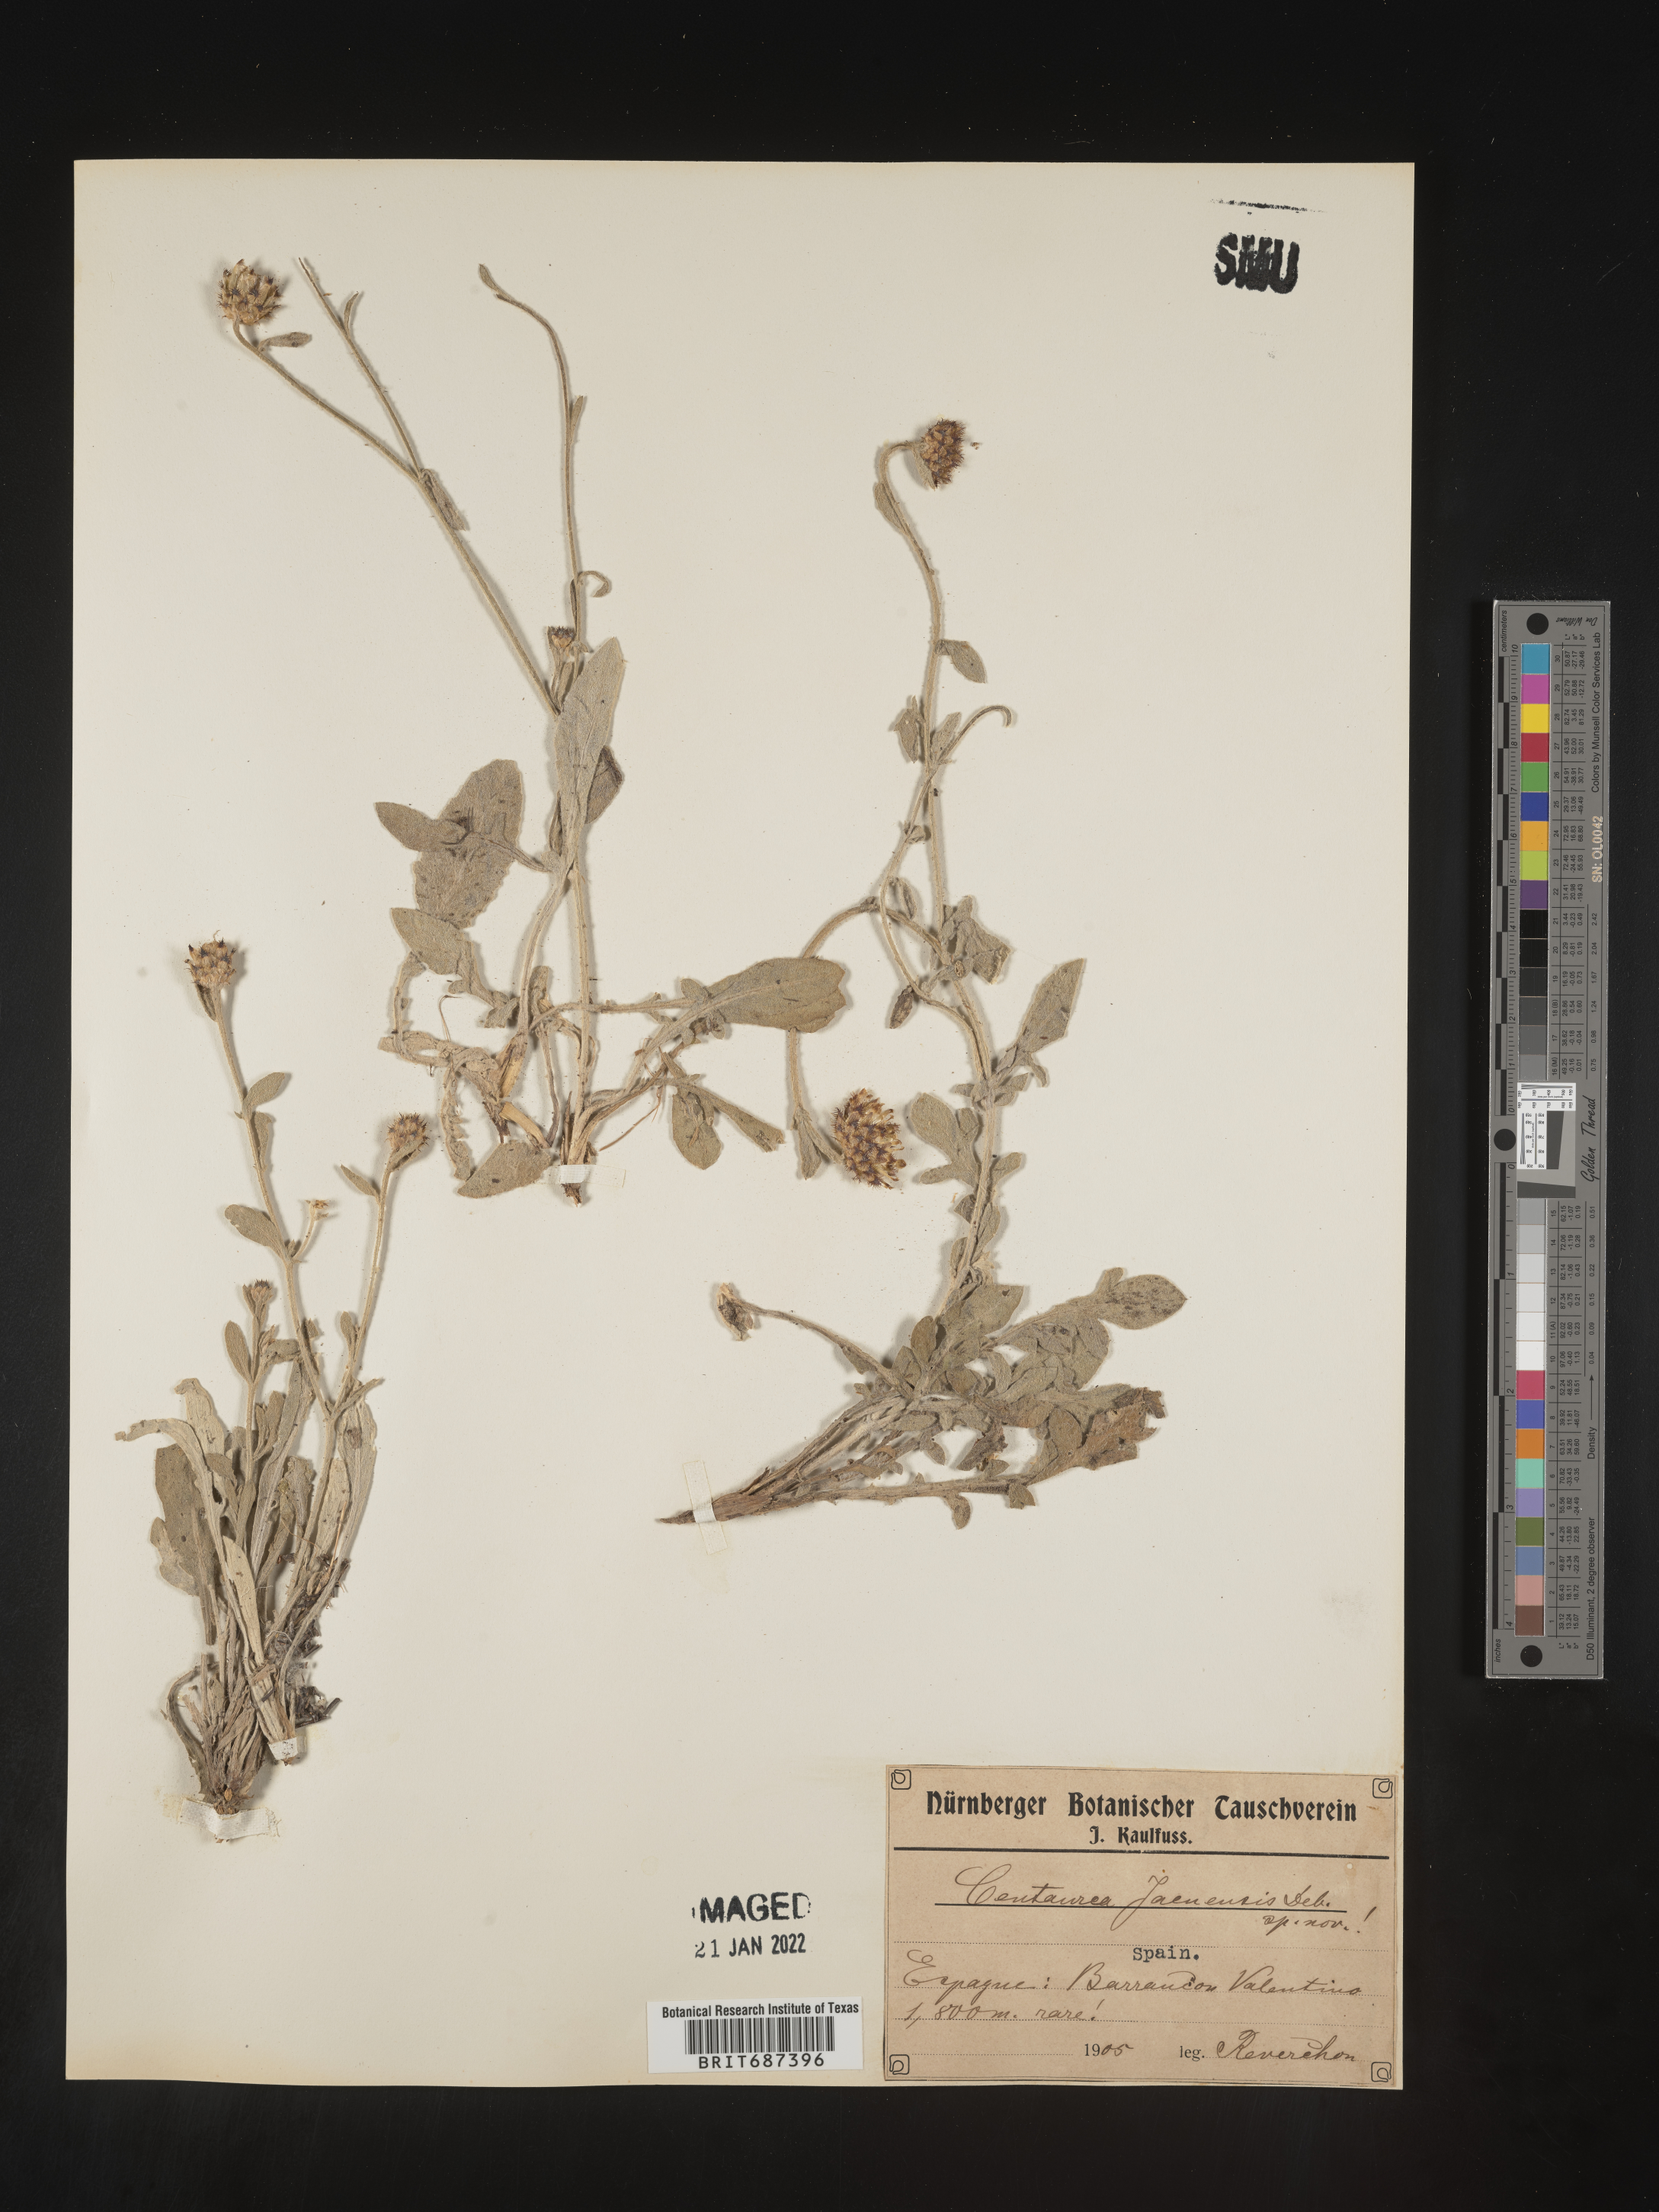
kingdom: Plantae
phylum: Tracheophyta
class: Magnoliopsida
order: Asterales
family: Asteraceae
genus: Centaurea
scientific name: Centaurea
